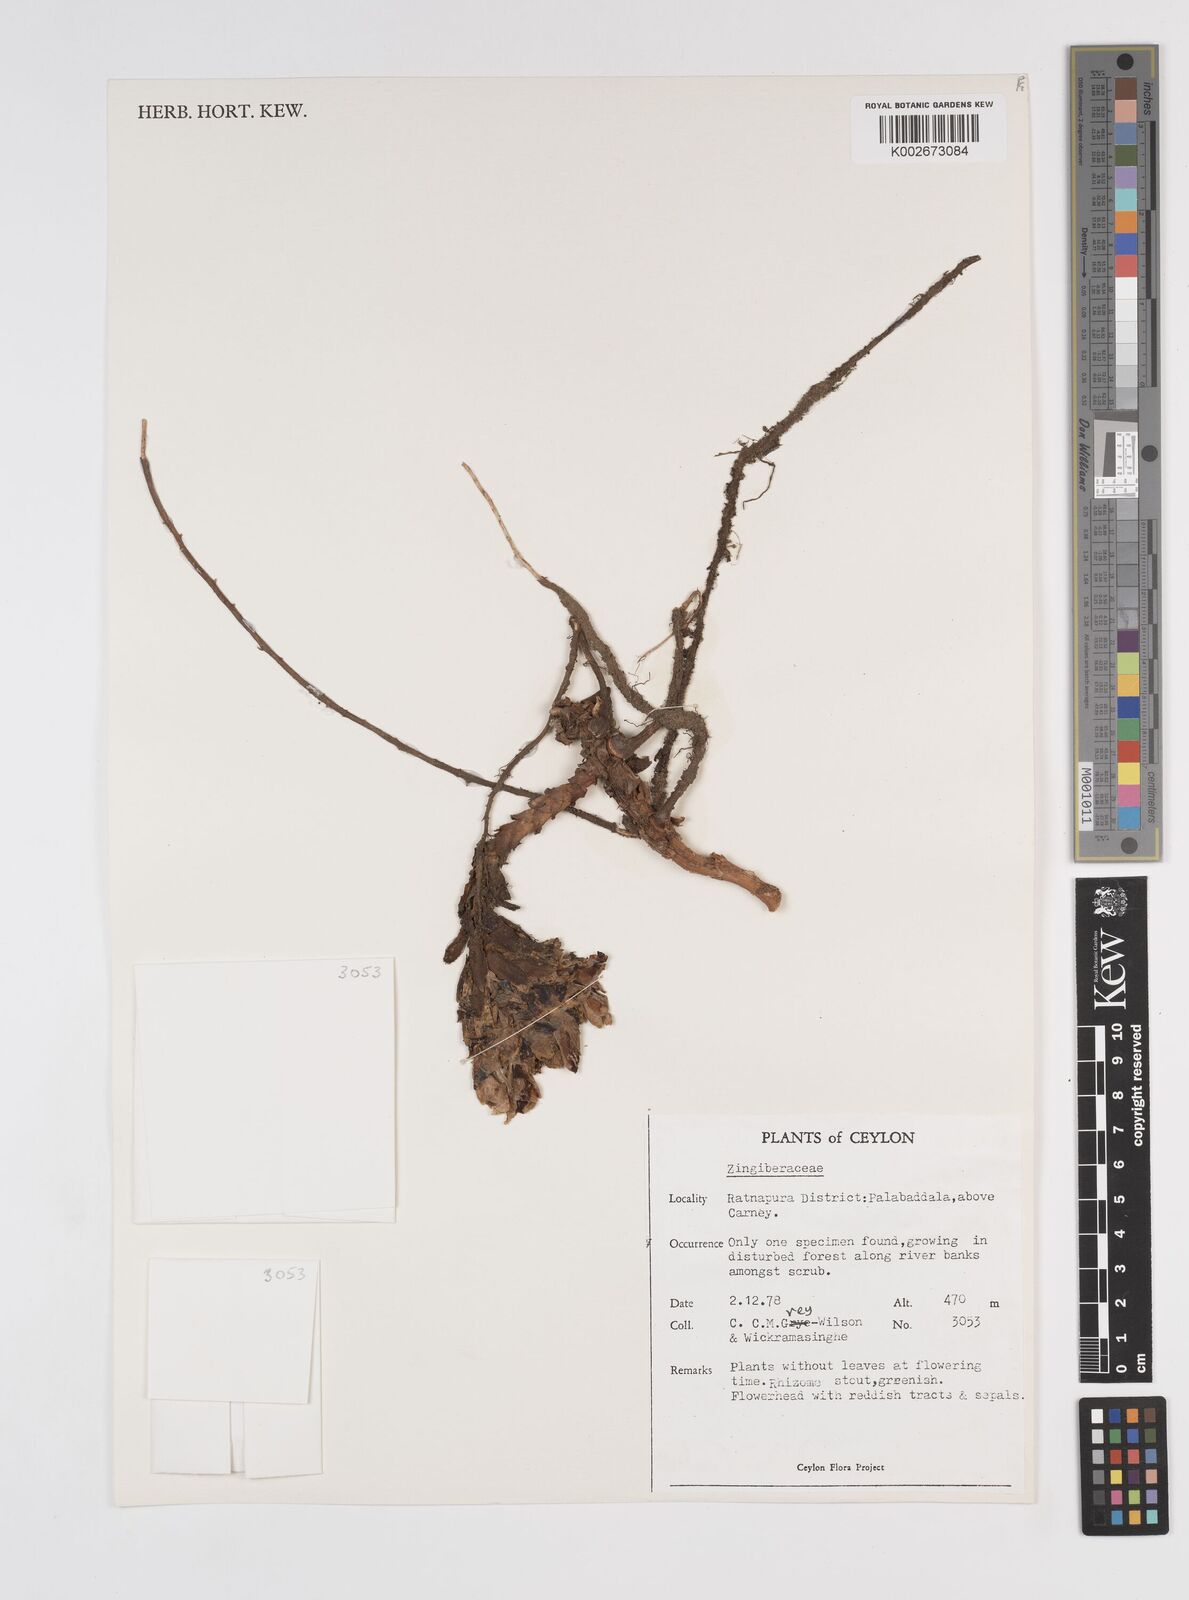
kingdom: Plantae
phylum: Tracheophyta
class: Liliopsida
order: Zingiberales
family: Zingiberaceae
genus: Amomum
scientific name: Amomum
